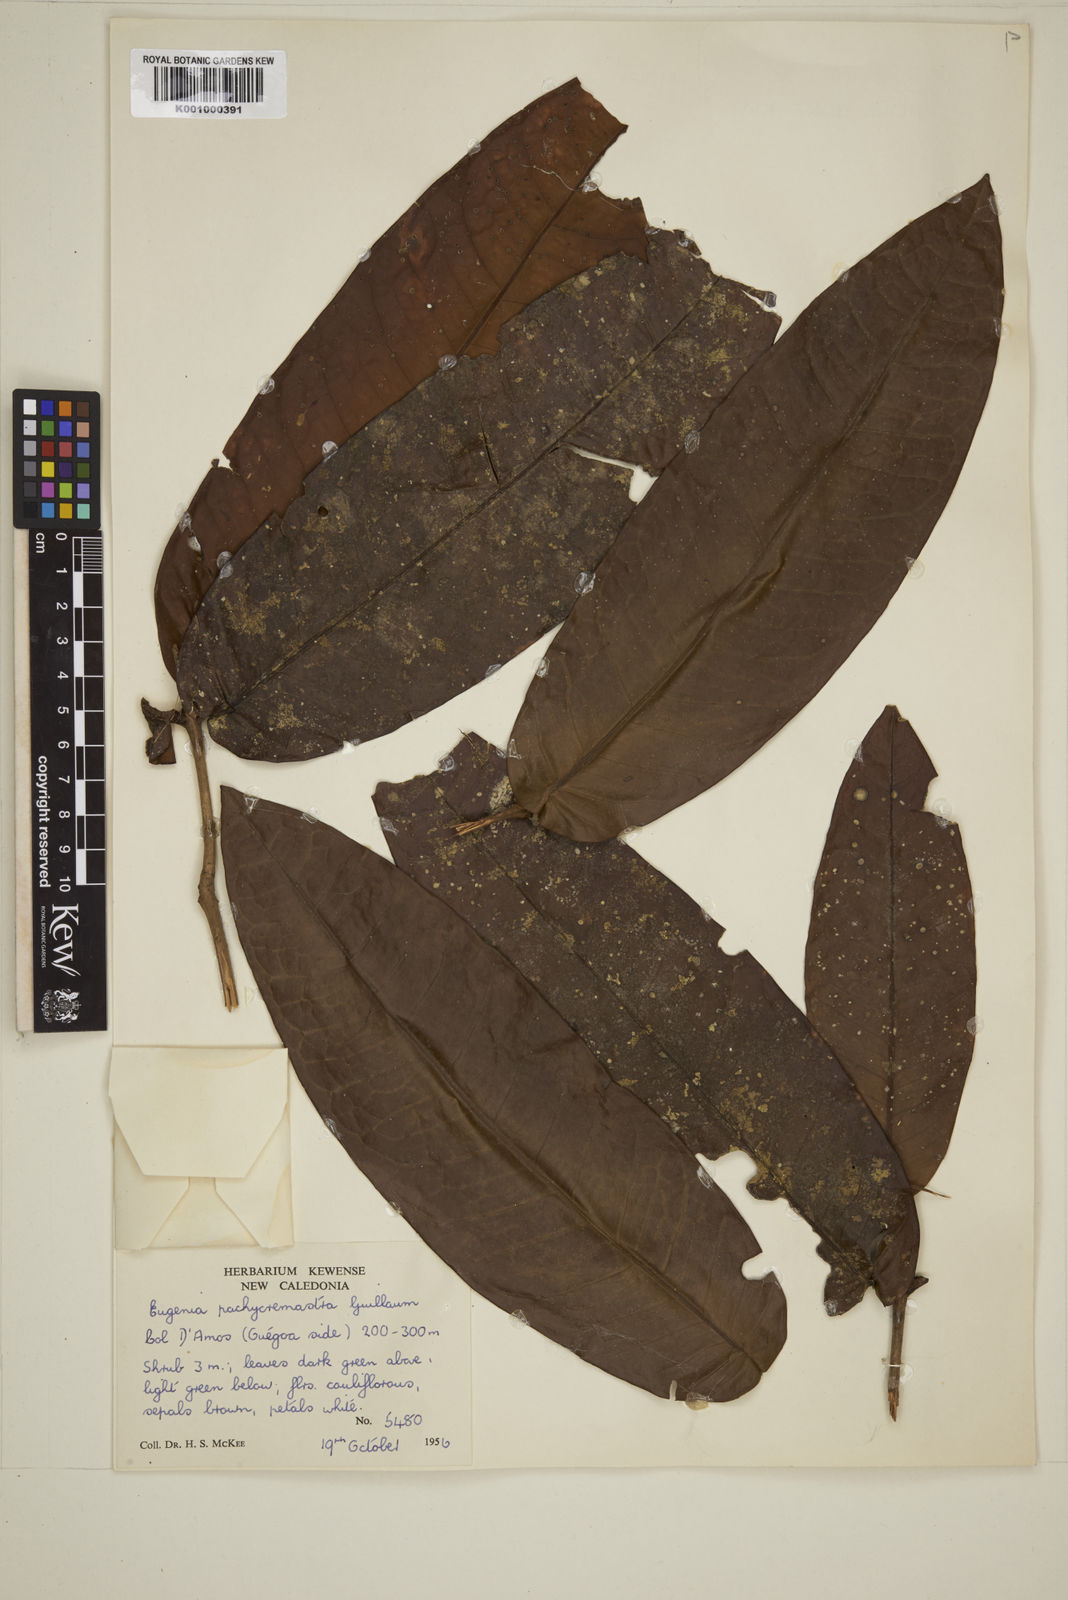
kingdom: Plantae
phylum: Tracheophyta
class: Magnoliopsida
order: Myrtales
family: Myrtaceae
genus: Eugenia
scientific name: Eugenia pachychremastra
